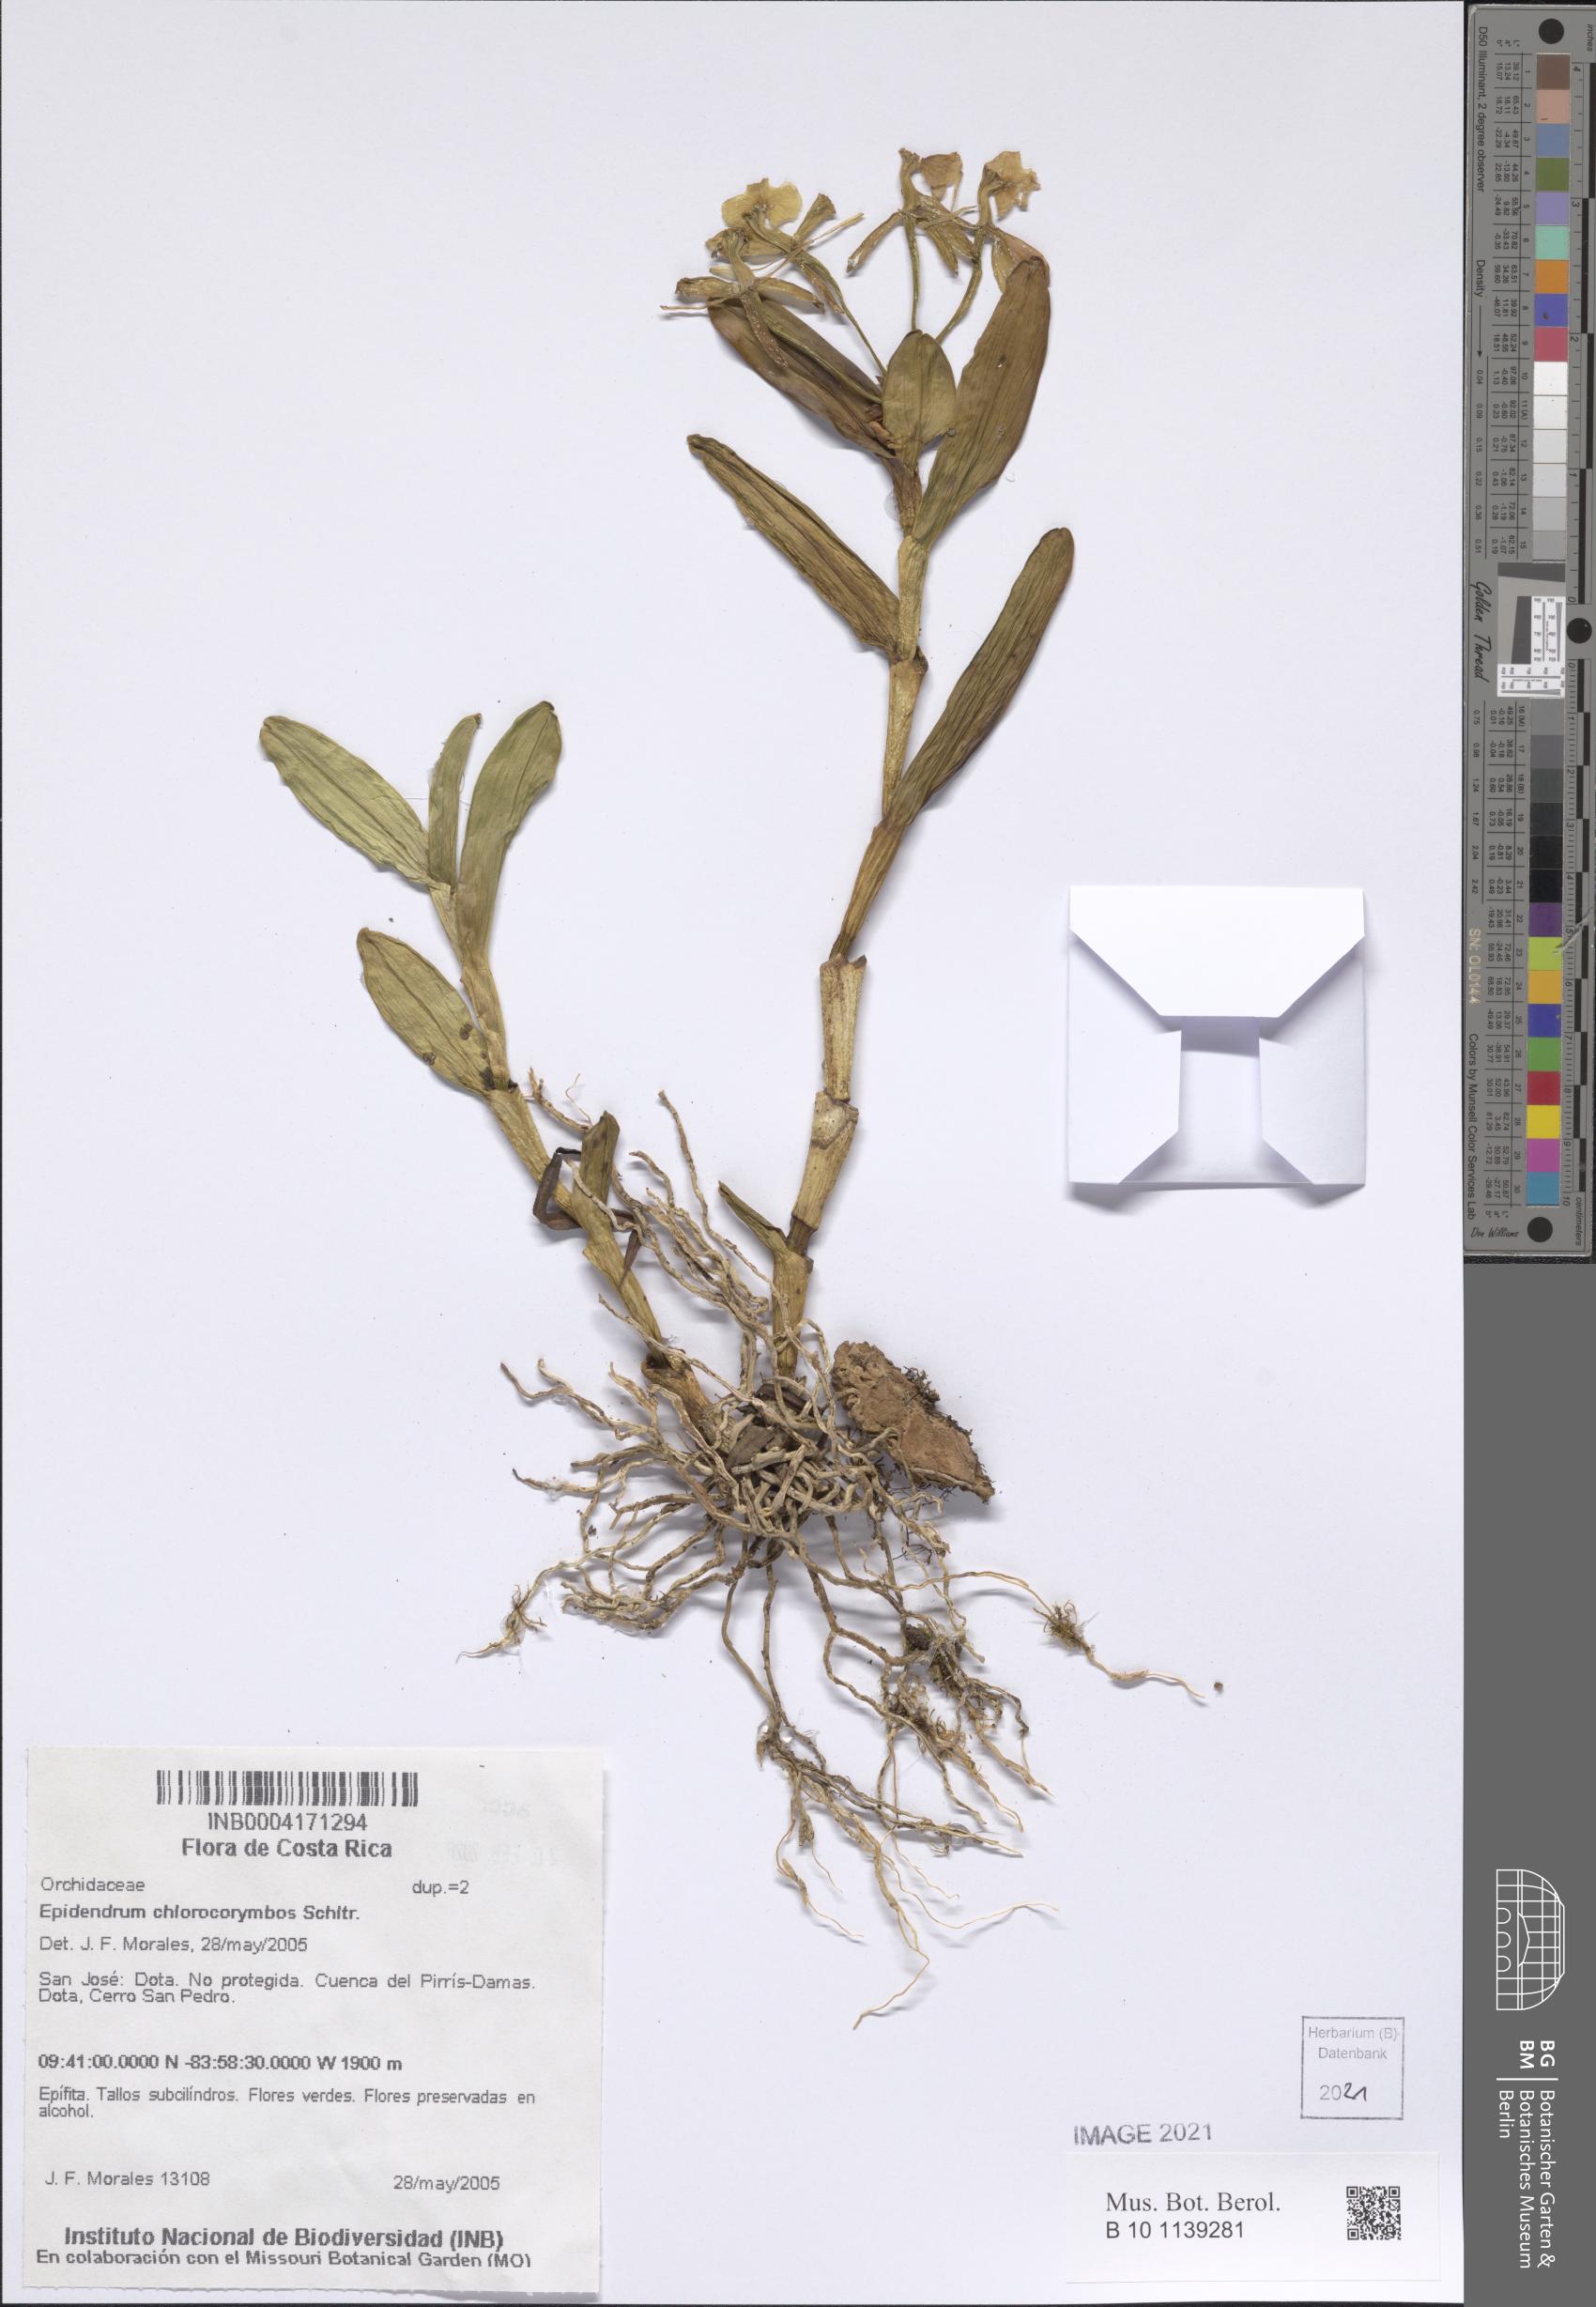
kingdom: Plantae
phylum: Tracheophyta
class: Liliopsida
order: Asparagales
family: Orchidaceae
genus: Epidendrum
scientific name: Epidendrum chlorocorymbos
